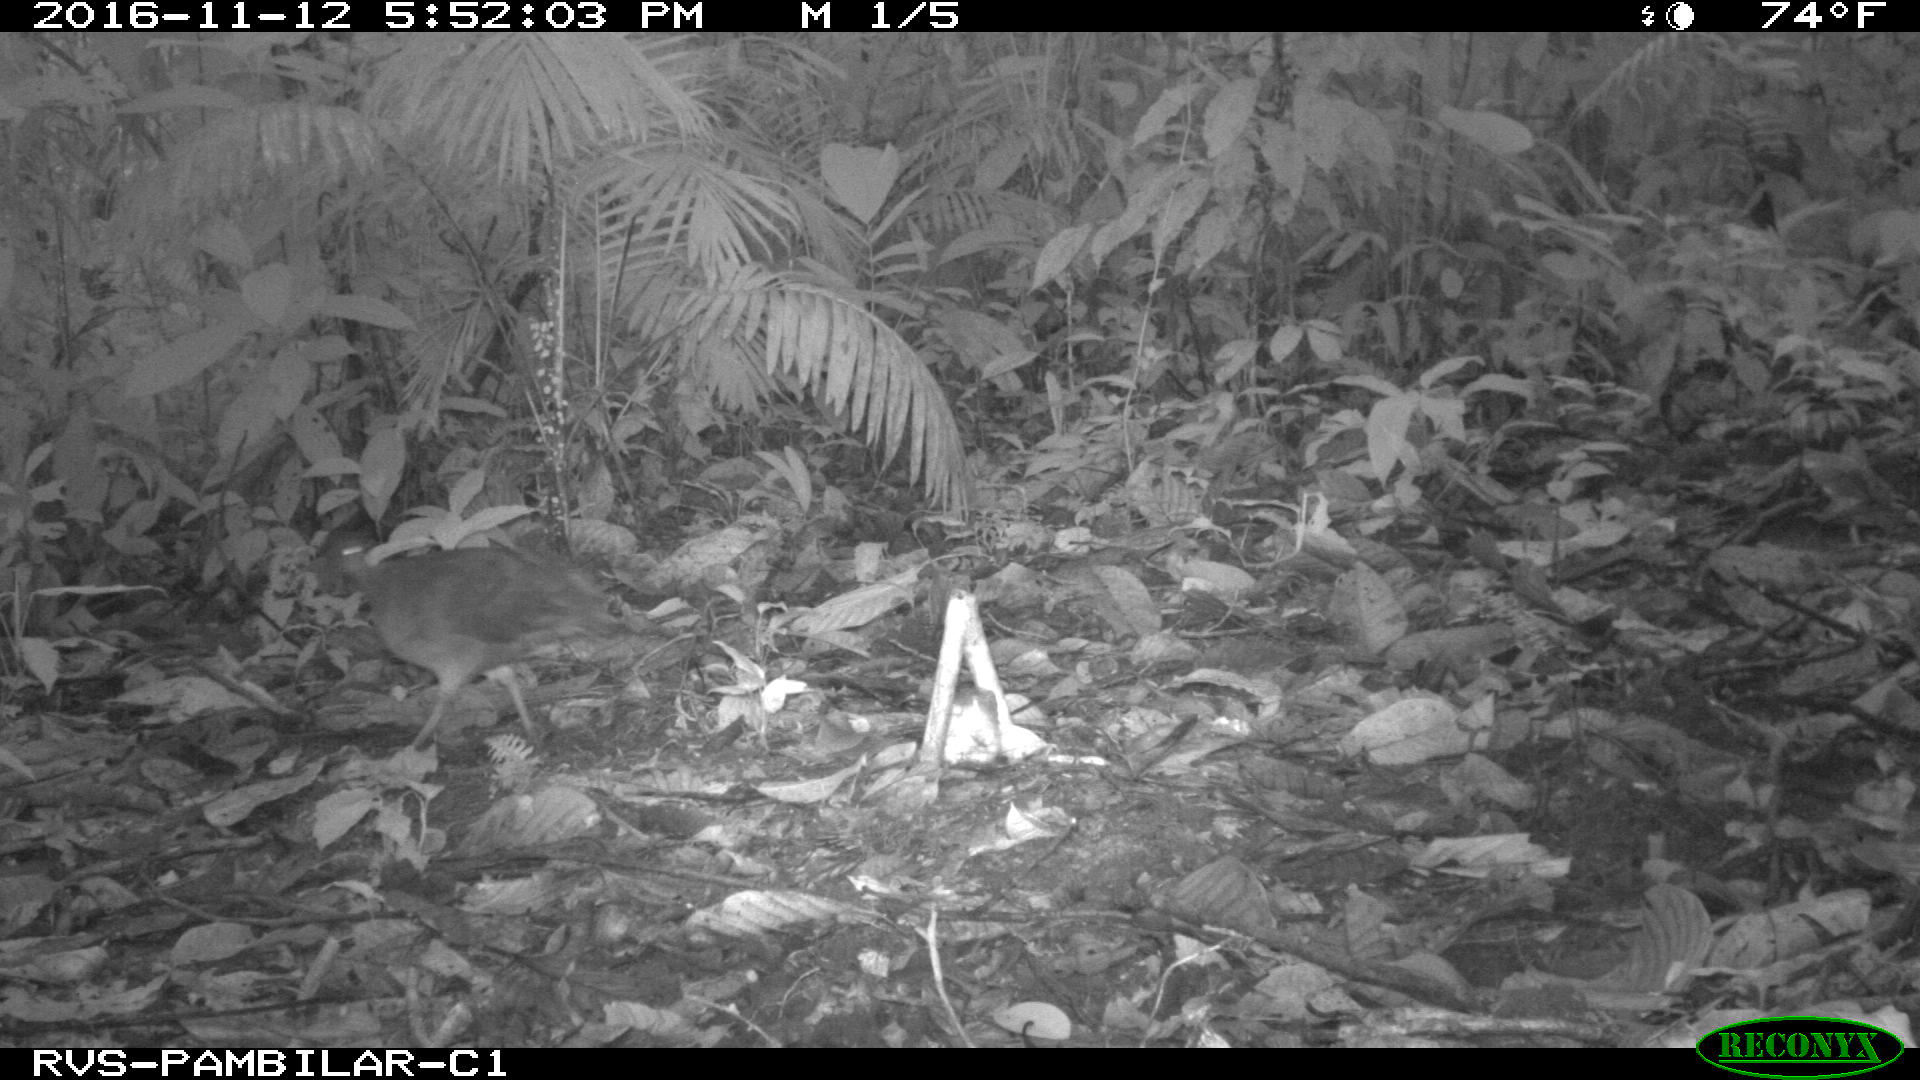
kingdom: Animalia
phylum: Chordata
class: Aves
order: Tinamiformes
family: Tinamidae
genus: Tinamus
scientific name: Tinamus major
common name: Great tinamou
